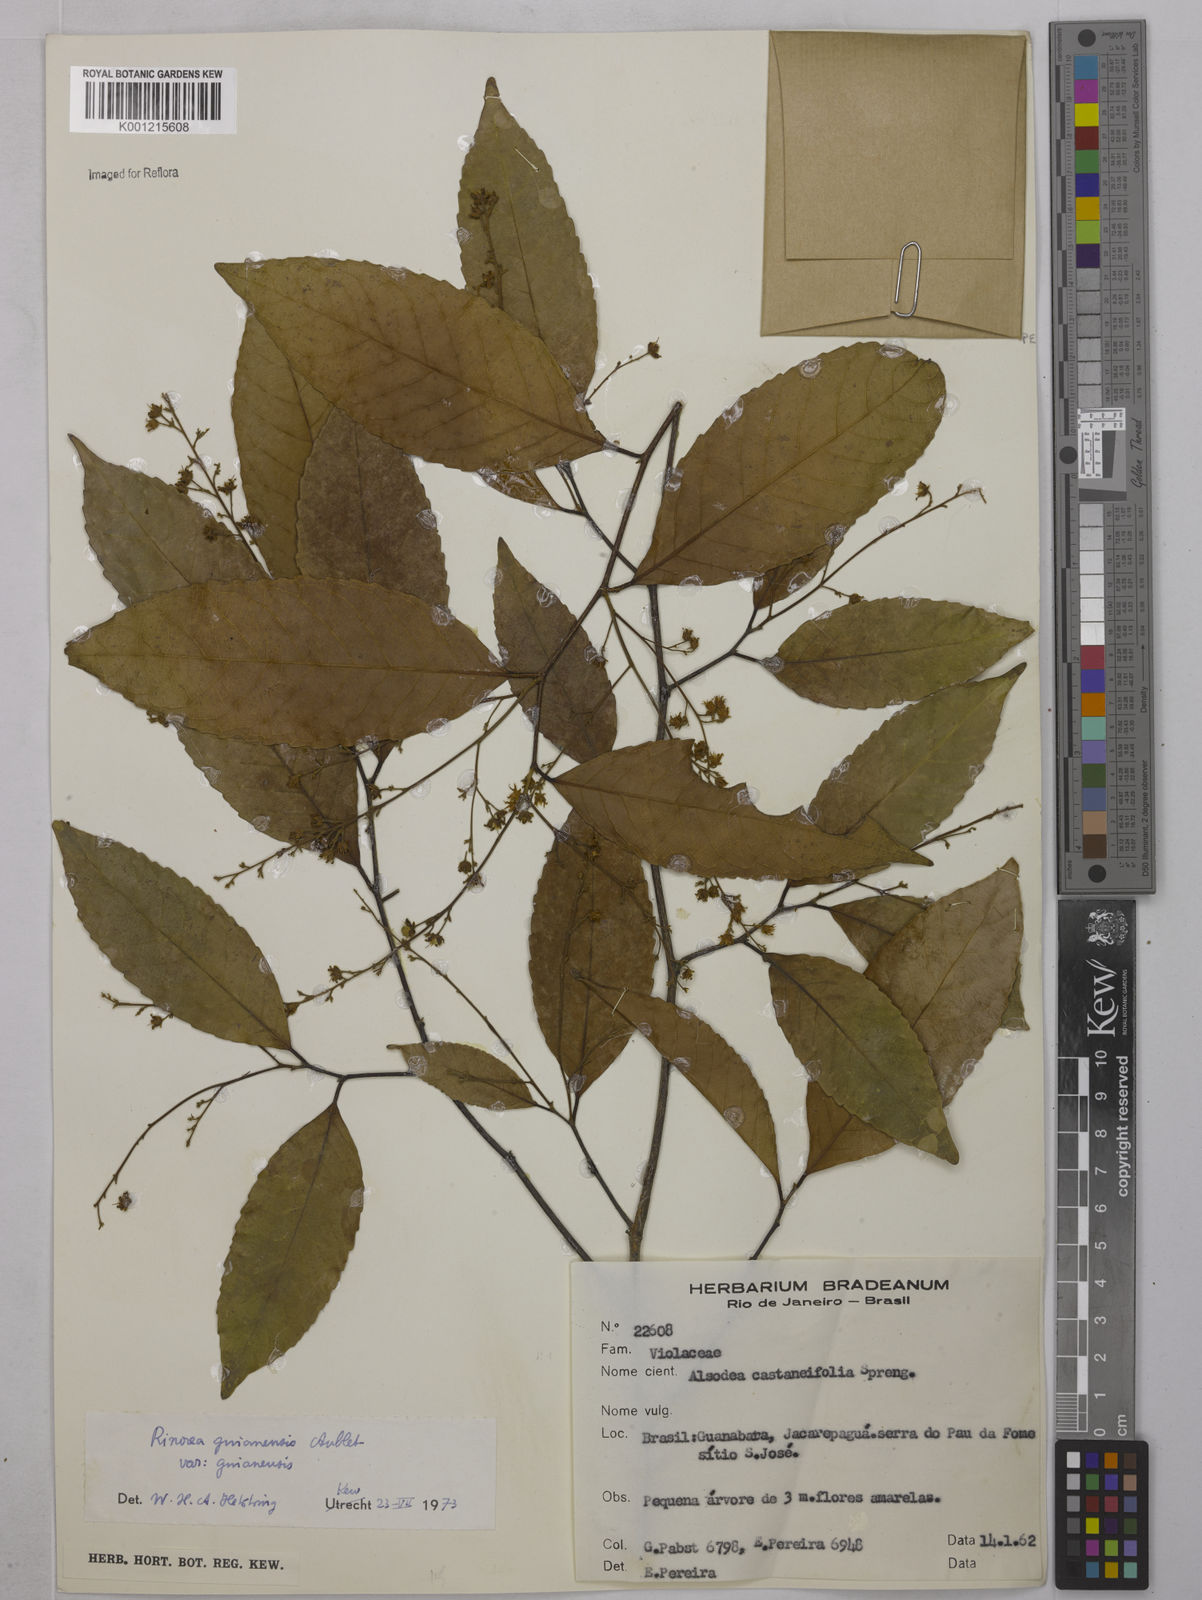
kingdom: Plantae
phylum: Tracheophyta
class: Magnoliopsida
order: Malpighiales
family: Violaceae
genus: Rinorea
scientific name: Rinorea guianensis
